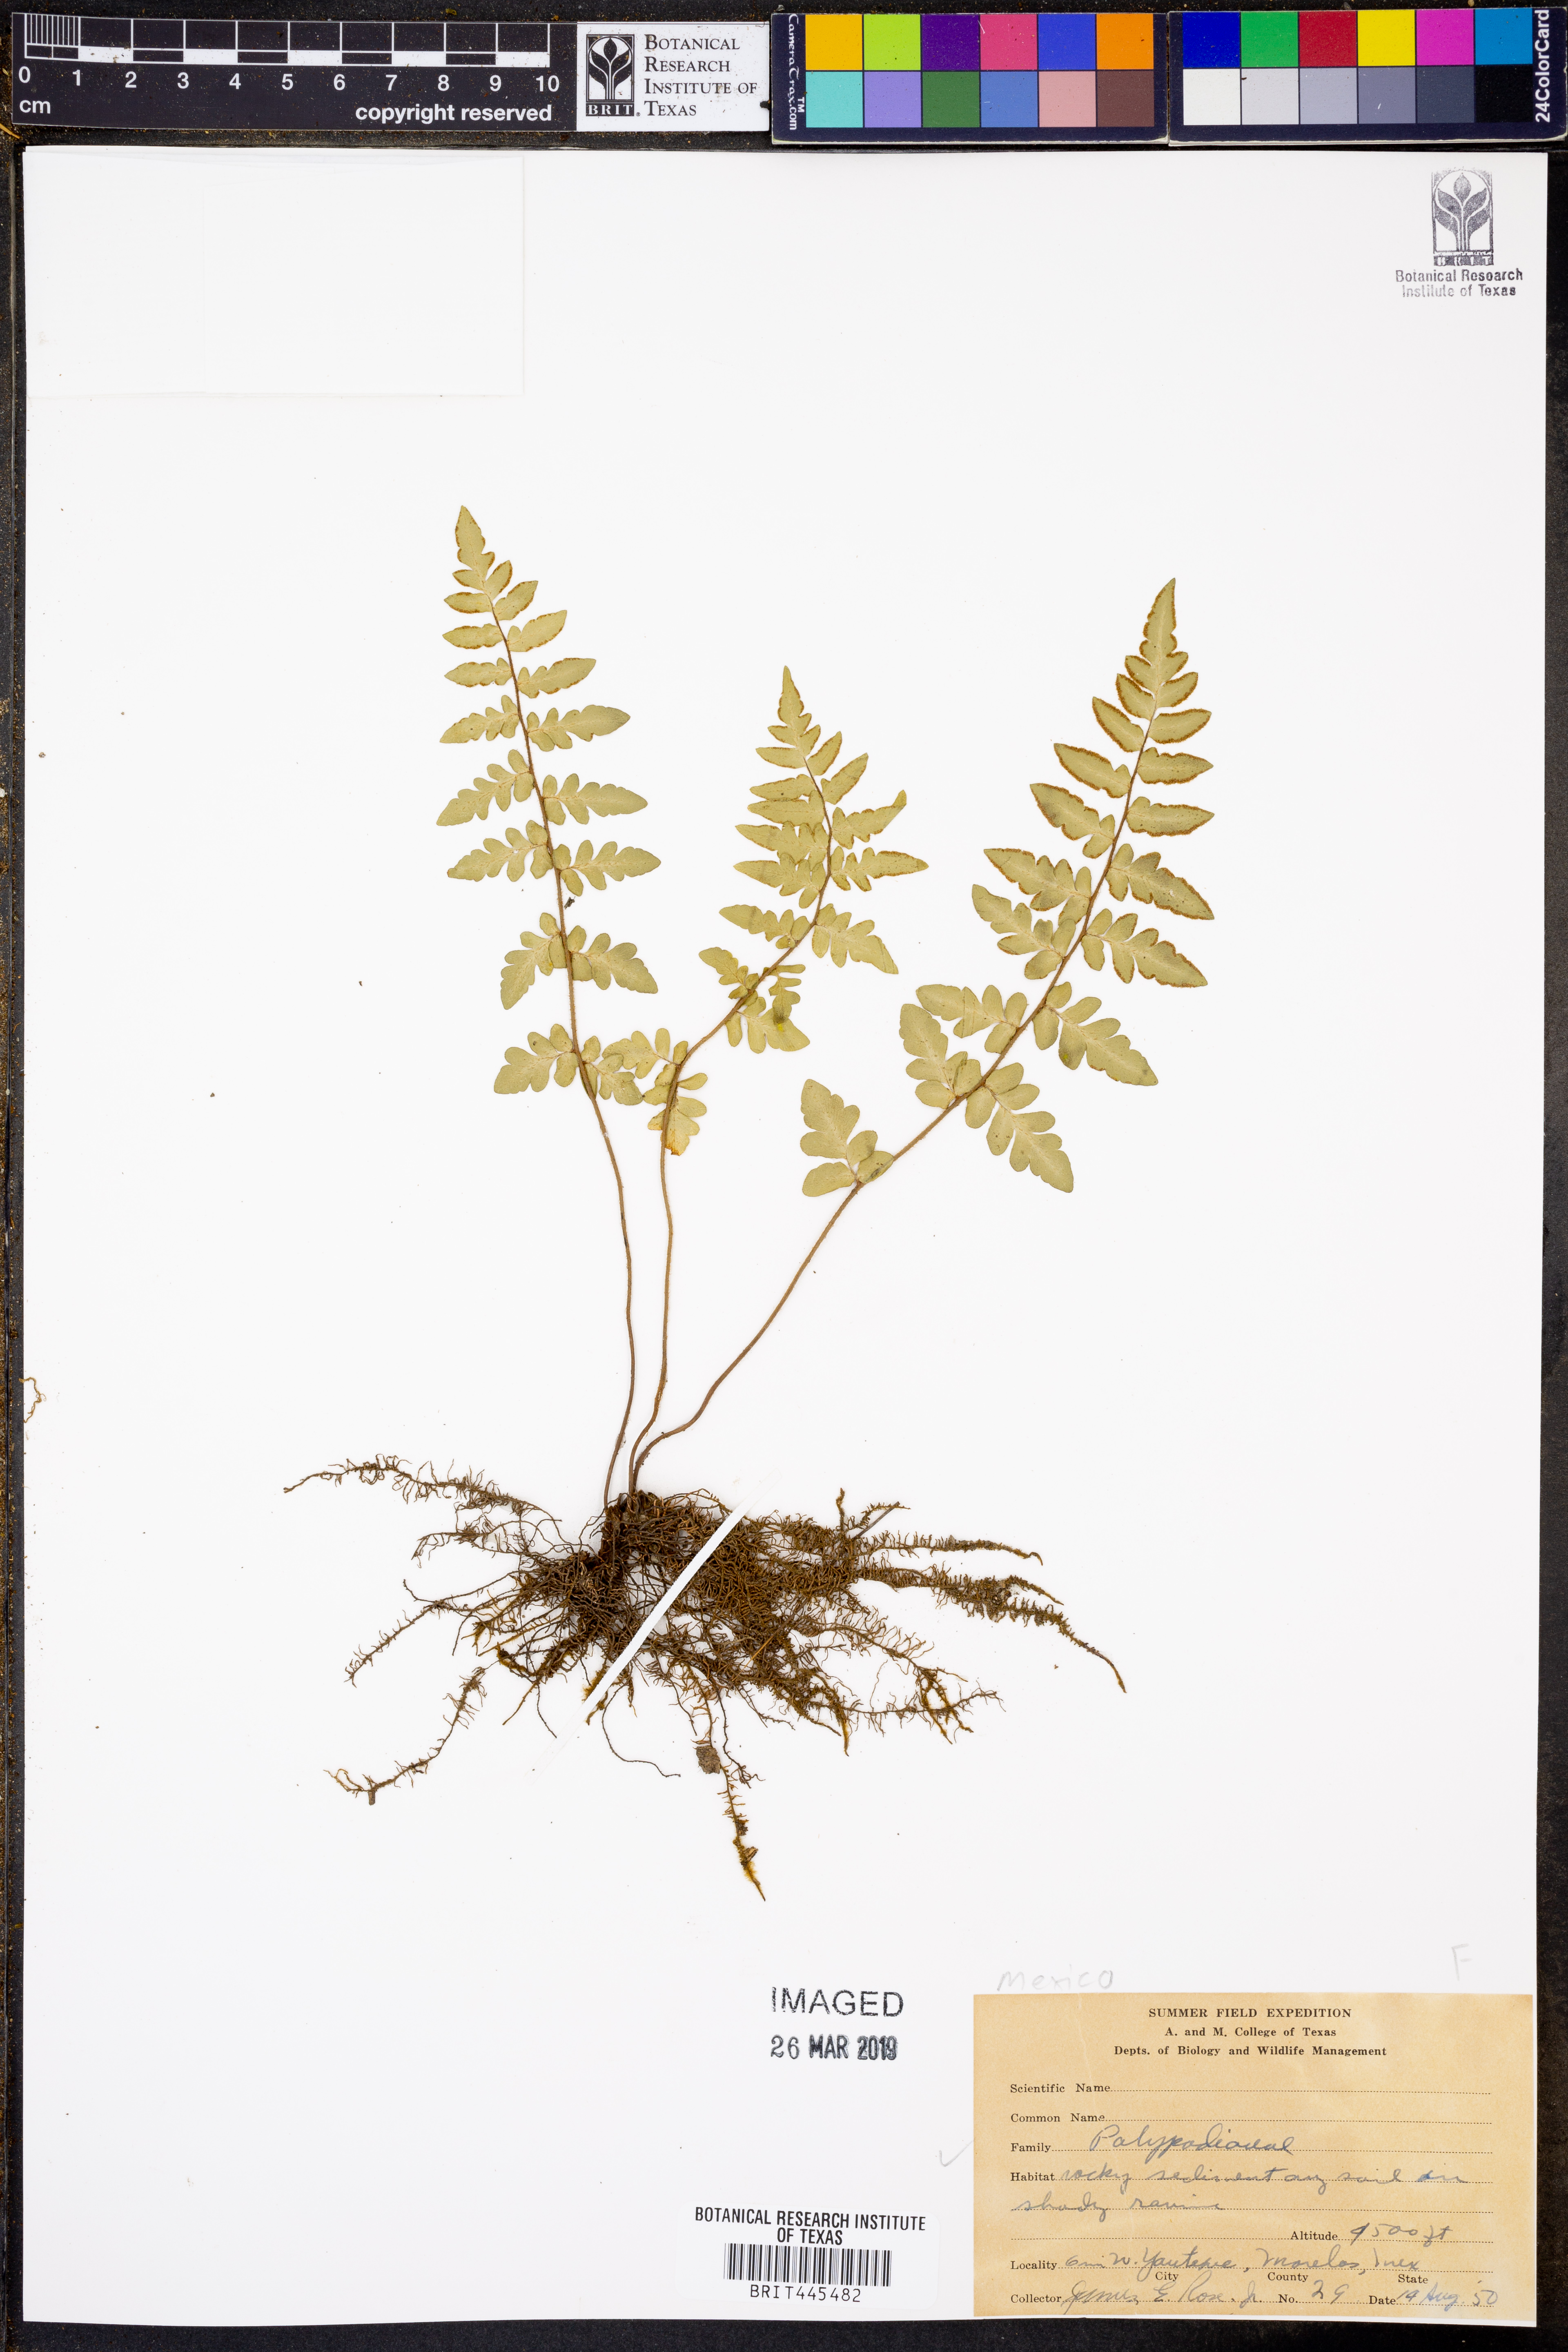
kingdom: Plantae
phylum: Tracheophyta
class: Polypodiopsida
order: Polypodiales
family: Polypodiaceae
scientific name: Polypodiaceae
